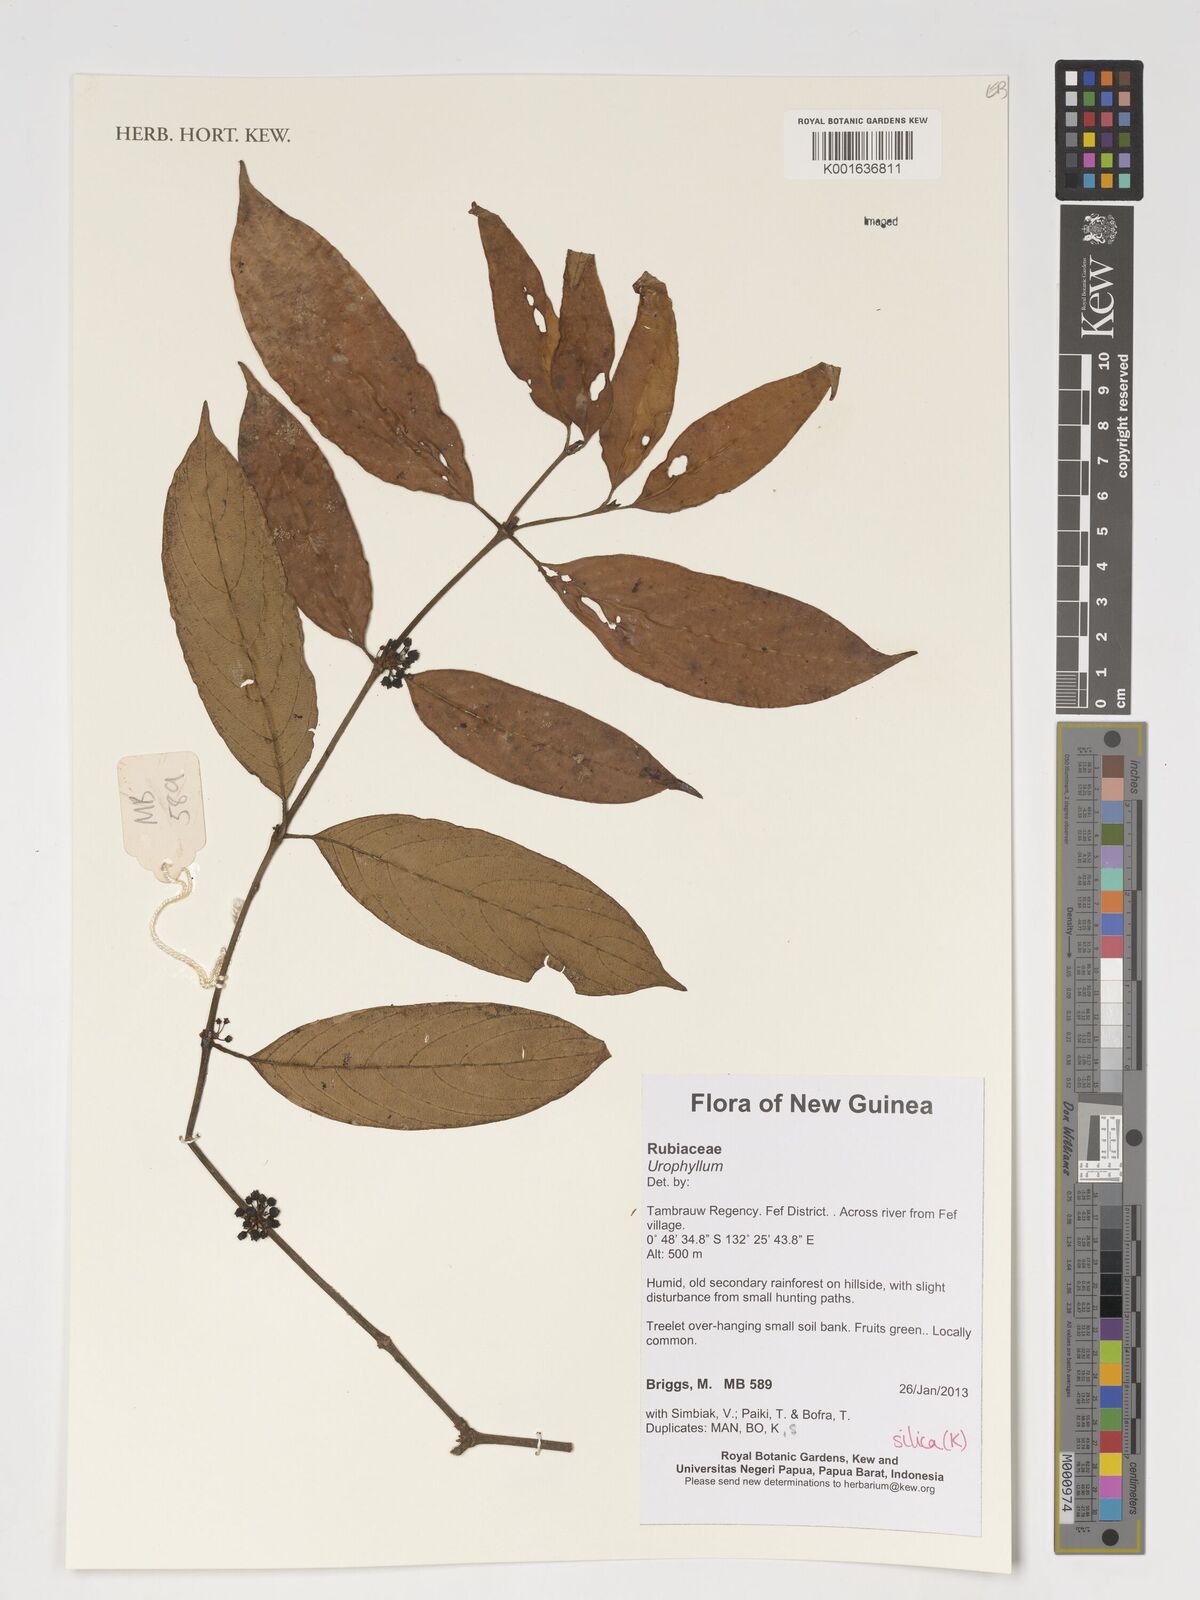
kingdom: Plantae
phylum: Tracheophyta
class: Magnoliopsida
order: Gentianales
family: Rubiaceae
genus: Urophyllum
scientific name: Urophyllum
